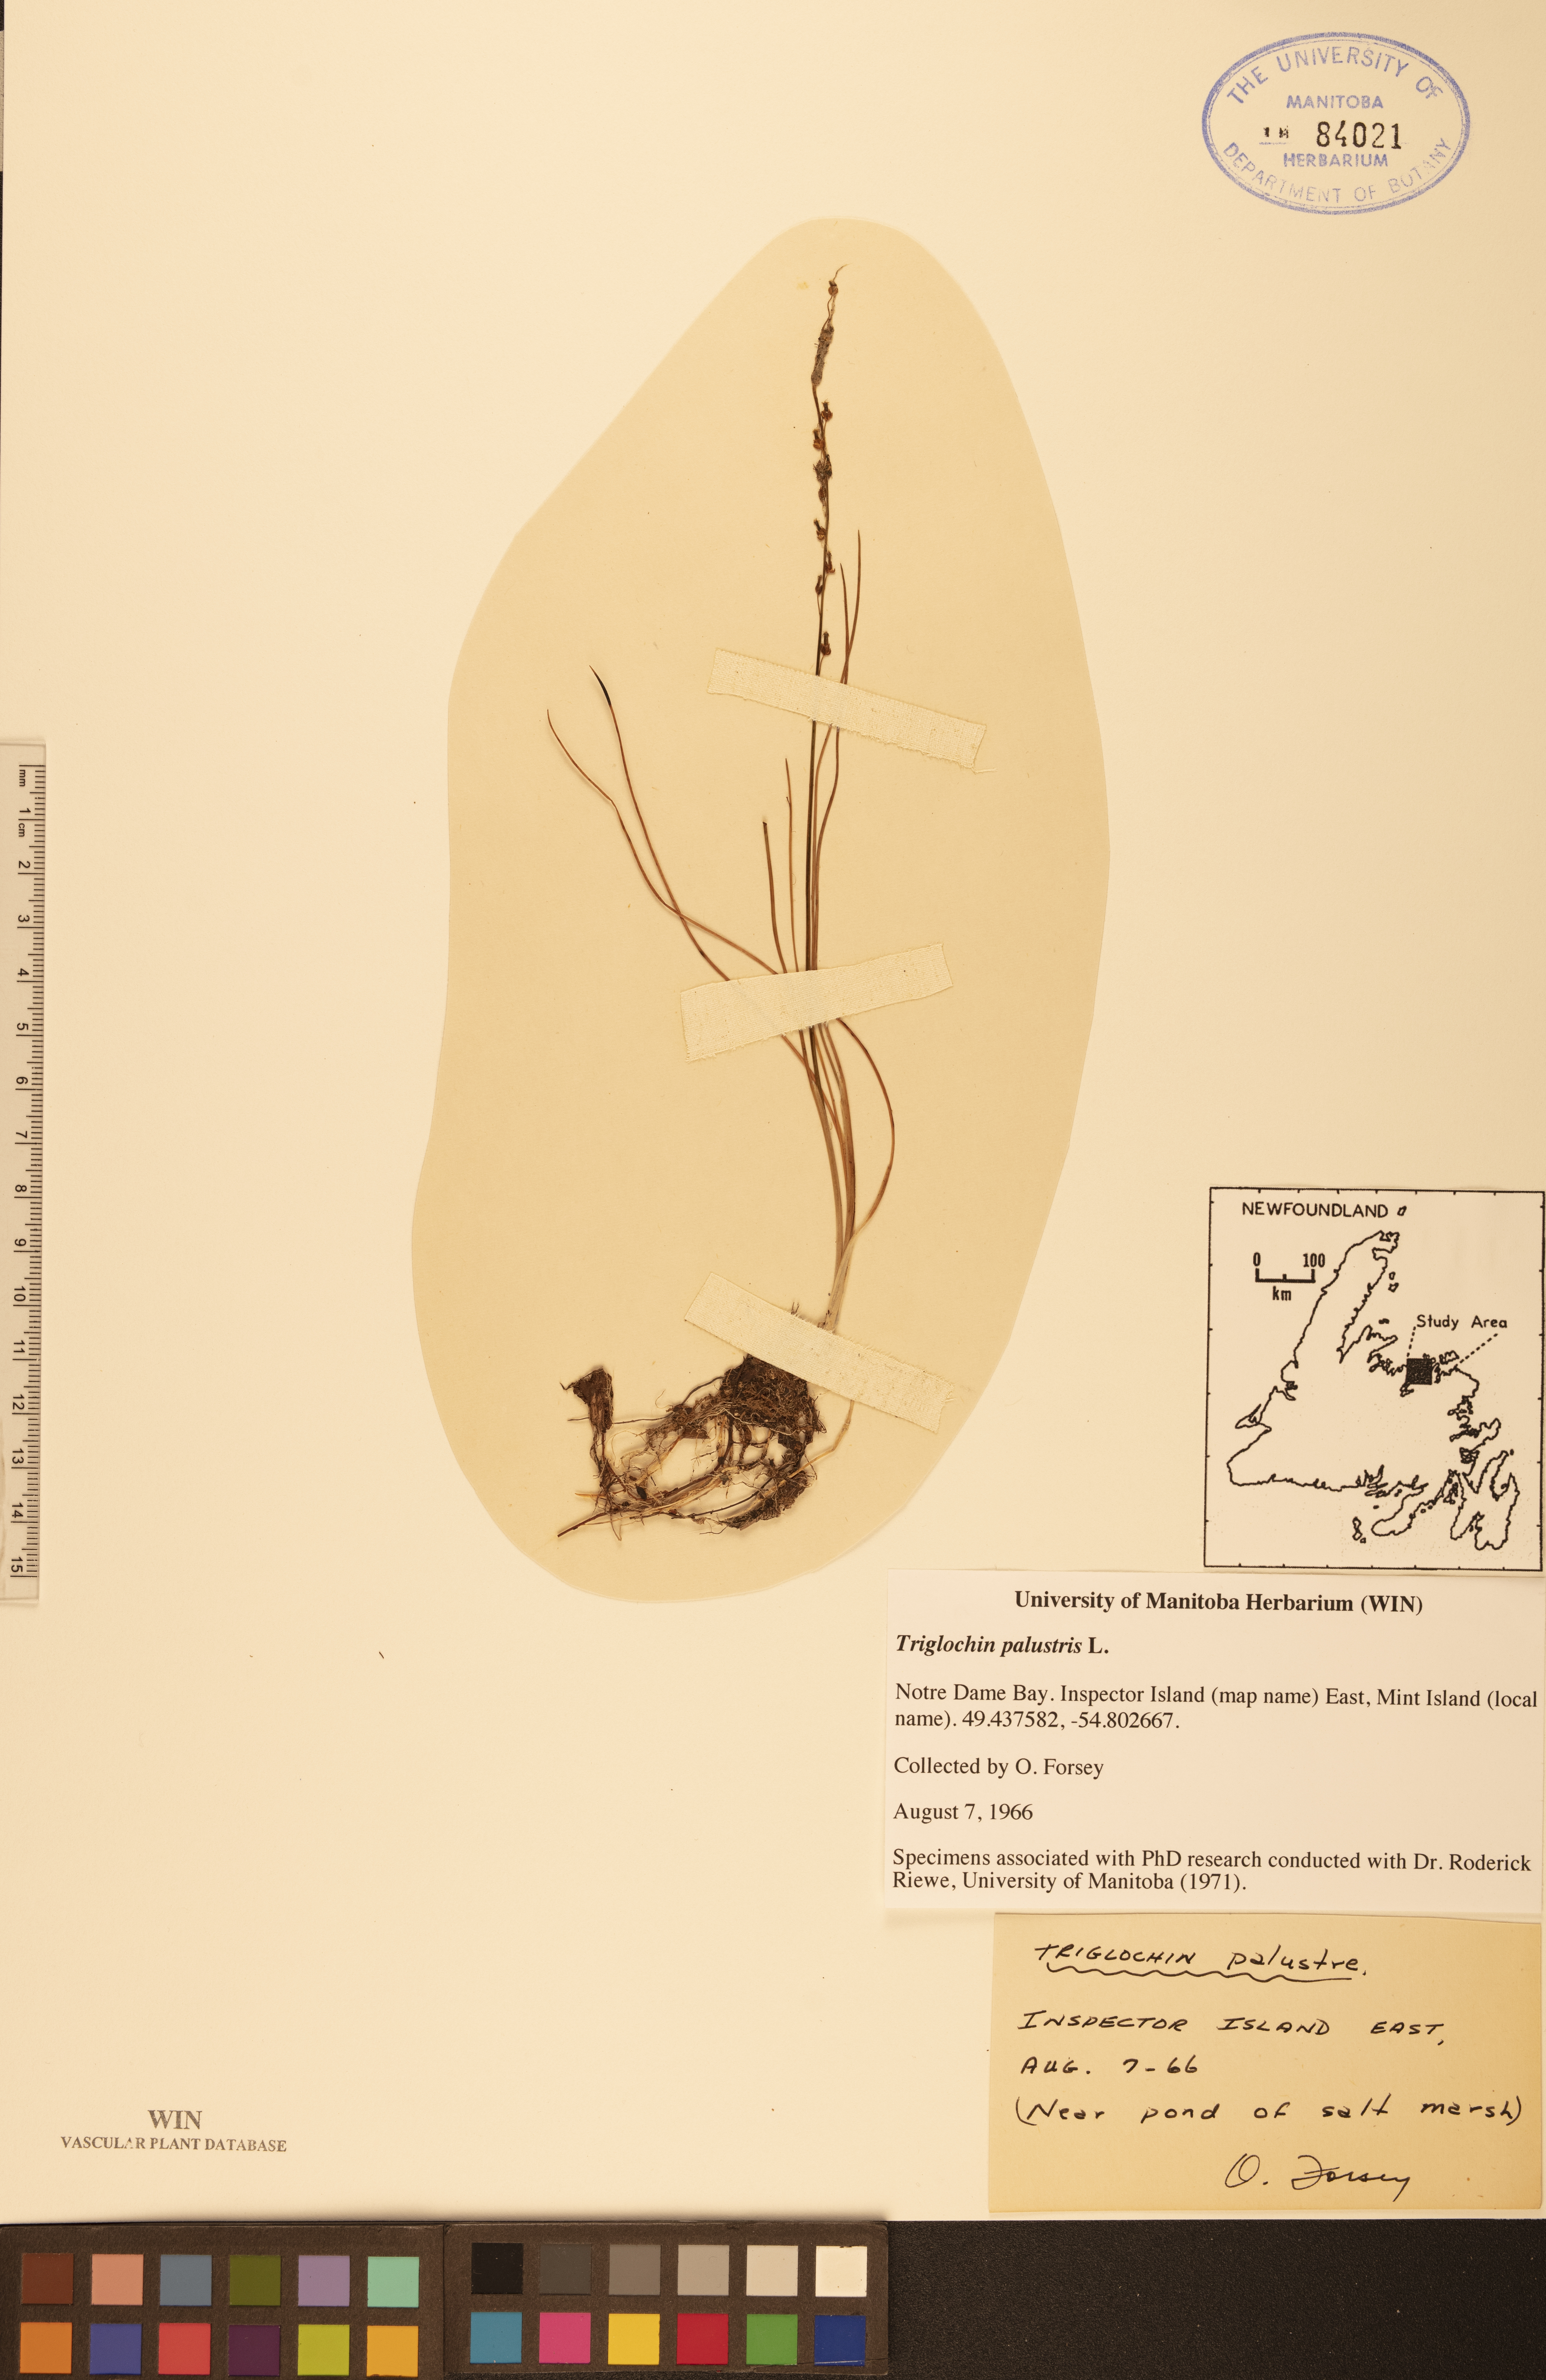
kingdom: Plantae
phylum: Tracheophyta
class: Liliopsida
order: Alismatales
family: Juncaginaceae
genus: Triglochin
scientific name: Triglochin palustris
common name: Marsh arrowgrass
